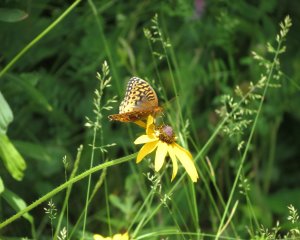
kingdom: Animalia
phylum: Arthropoda
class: Insecta
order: Lepidoptera
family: Nymphalidae
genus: Speyeria
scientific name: Speyeria cybele
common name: Great Spangled Fritillary
